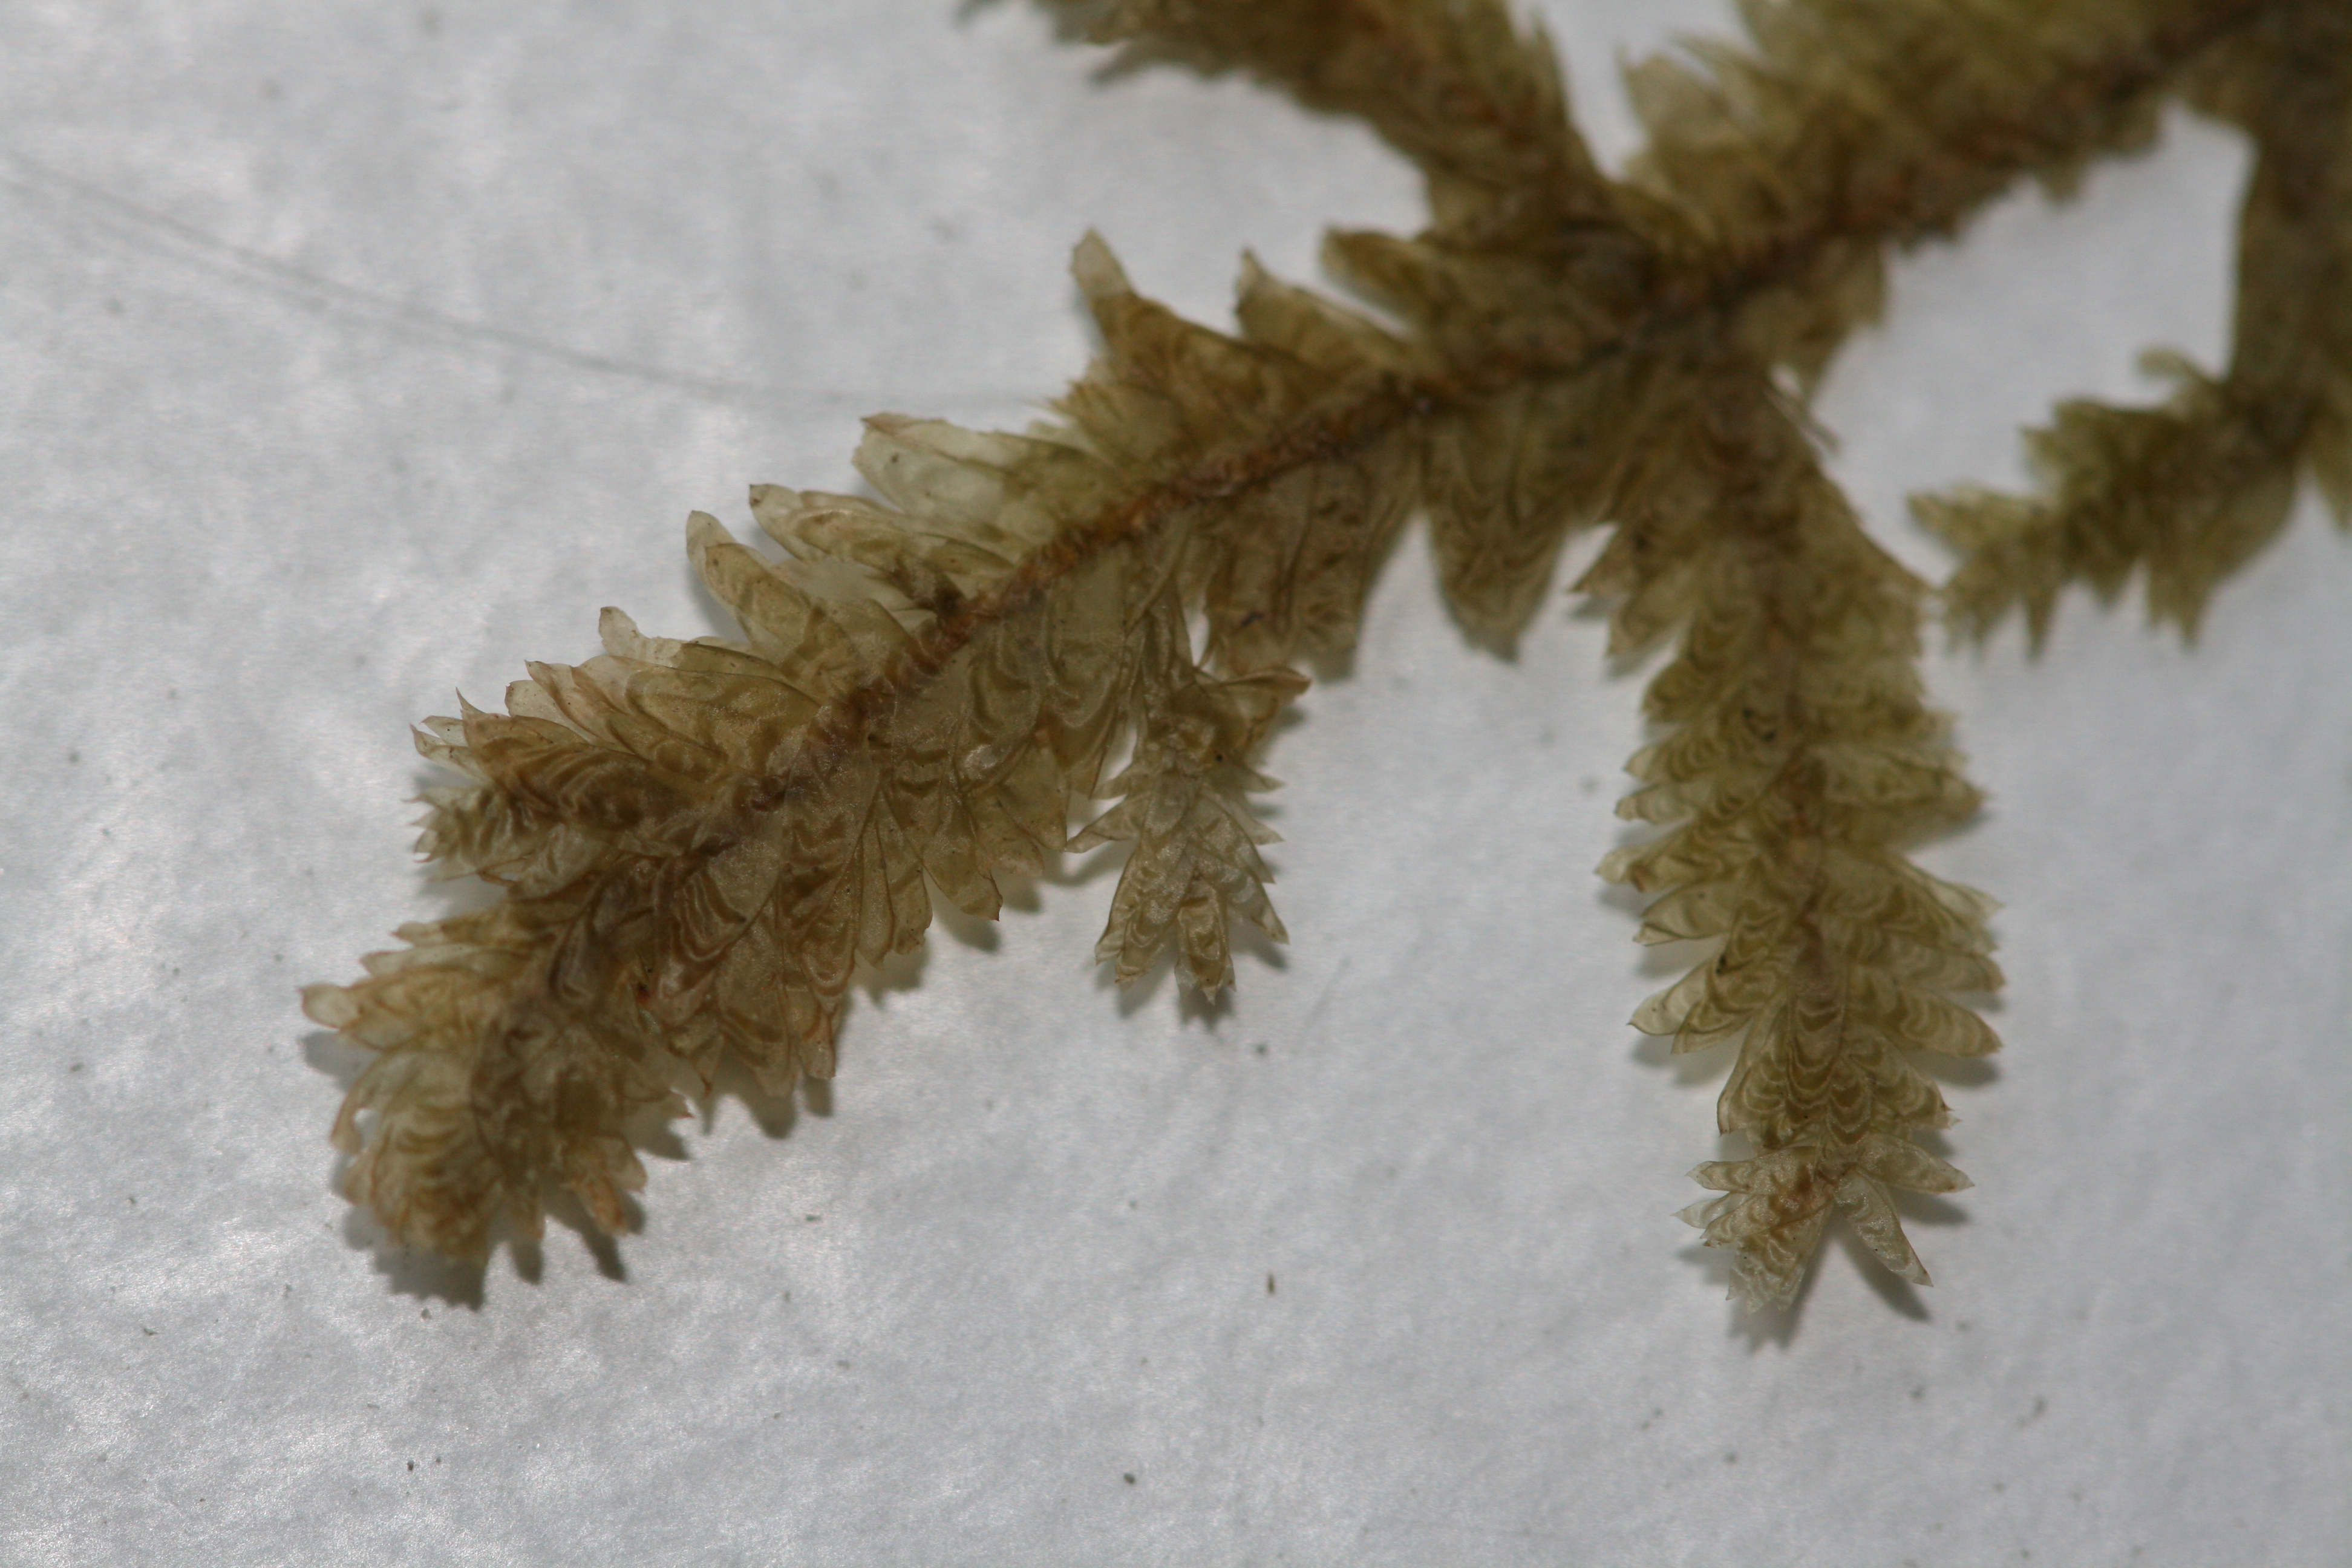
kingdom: Plantae
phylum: Bryophyta
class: Bryopsida
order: Hypnales
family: Neckeraceae
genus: Exsertotheca
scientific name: Exsertotheca crispa
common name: Kruset fladmos
